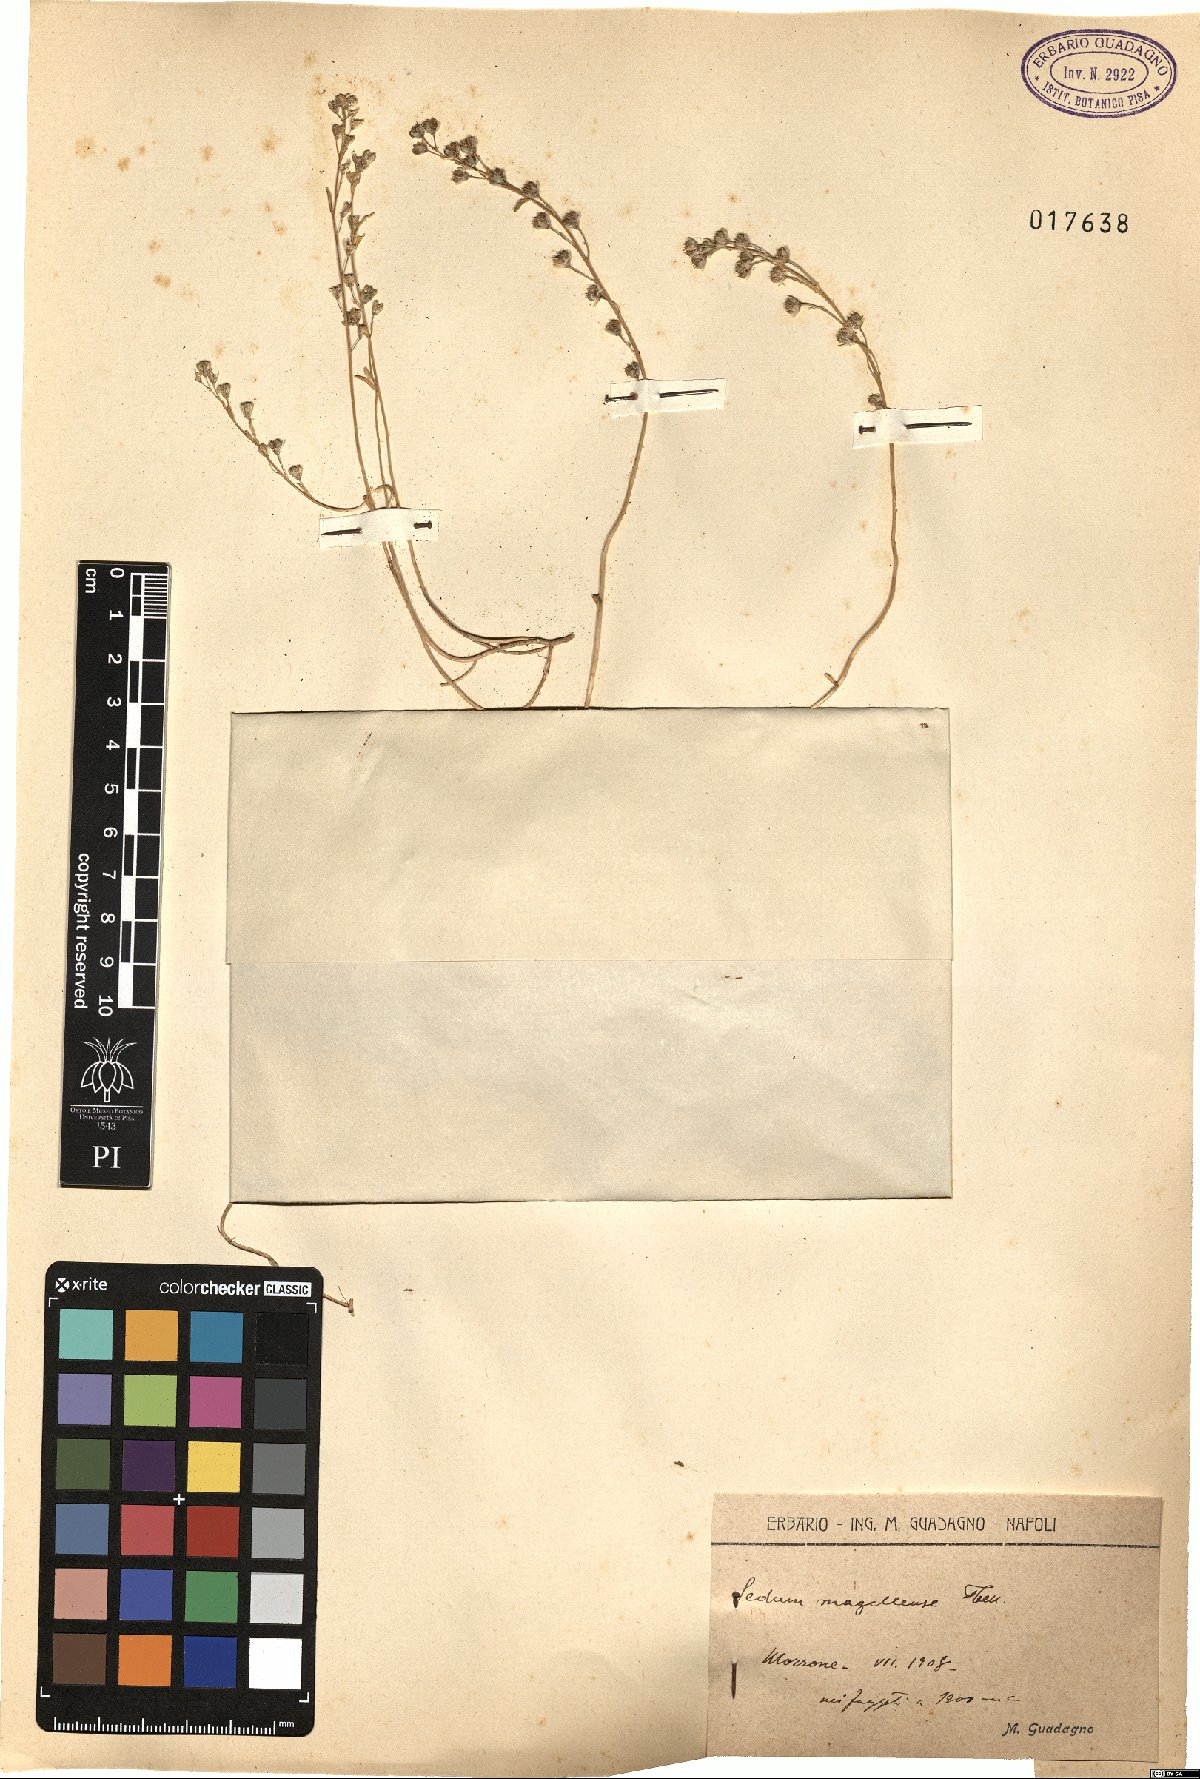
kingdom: Plantae
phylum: Tracheophyta
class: Magnoliopsida
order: Saxifragales
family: Crassulaceae
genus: Sedum
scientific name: Sedum magellense
